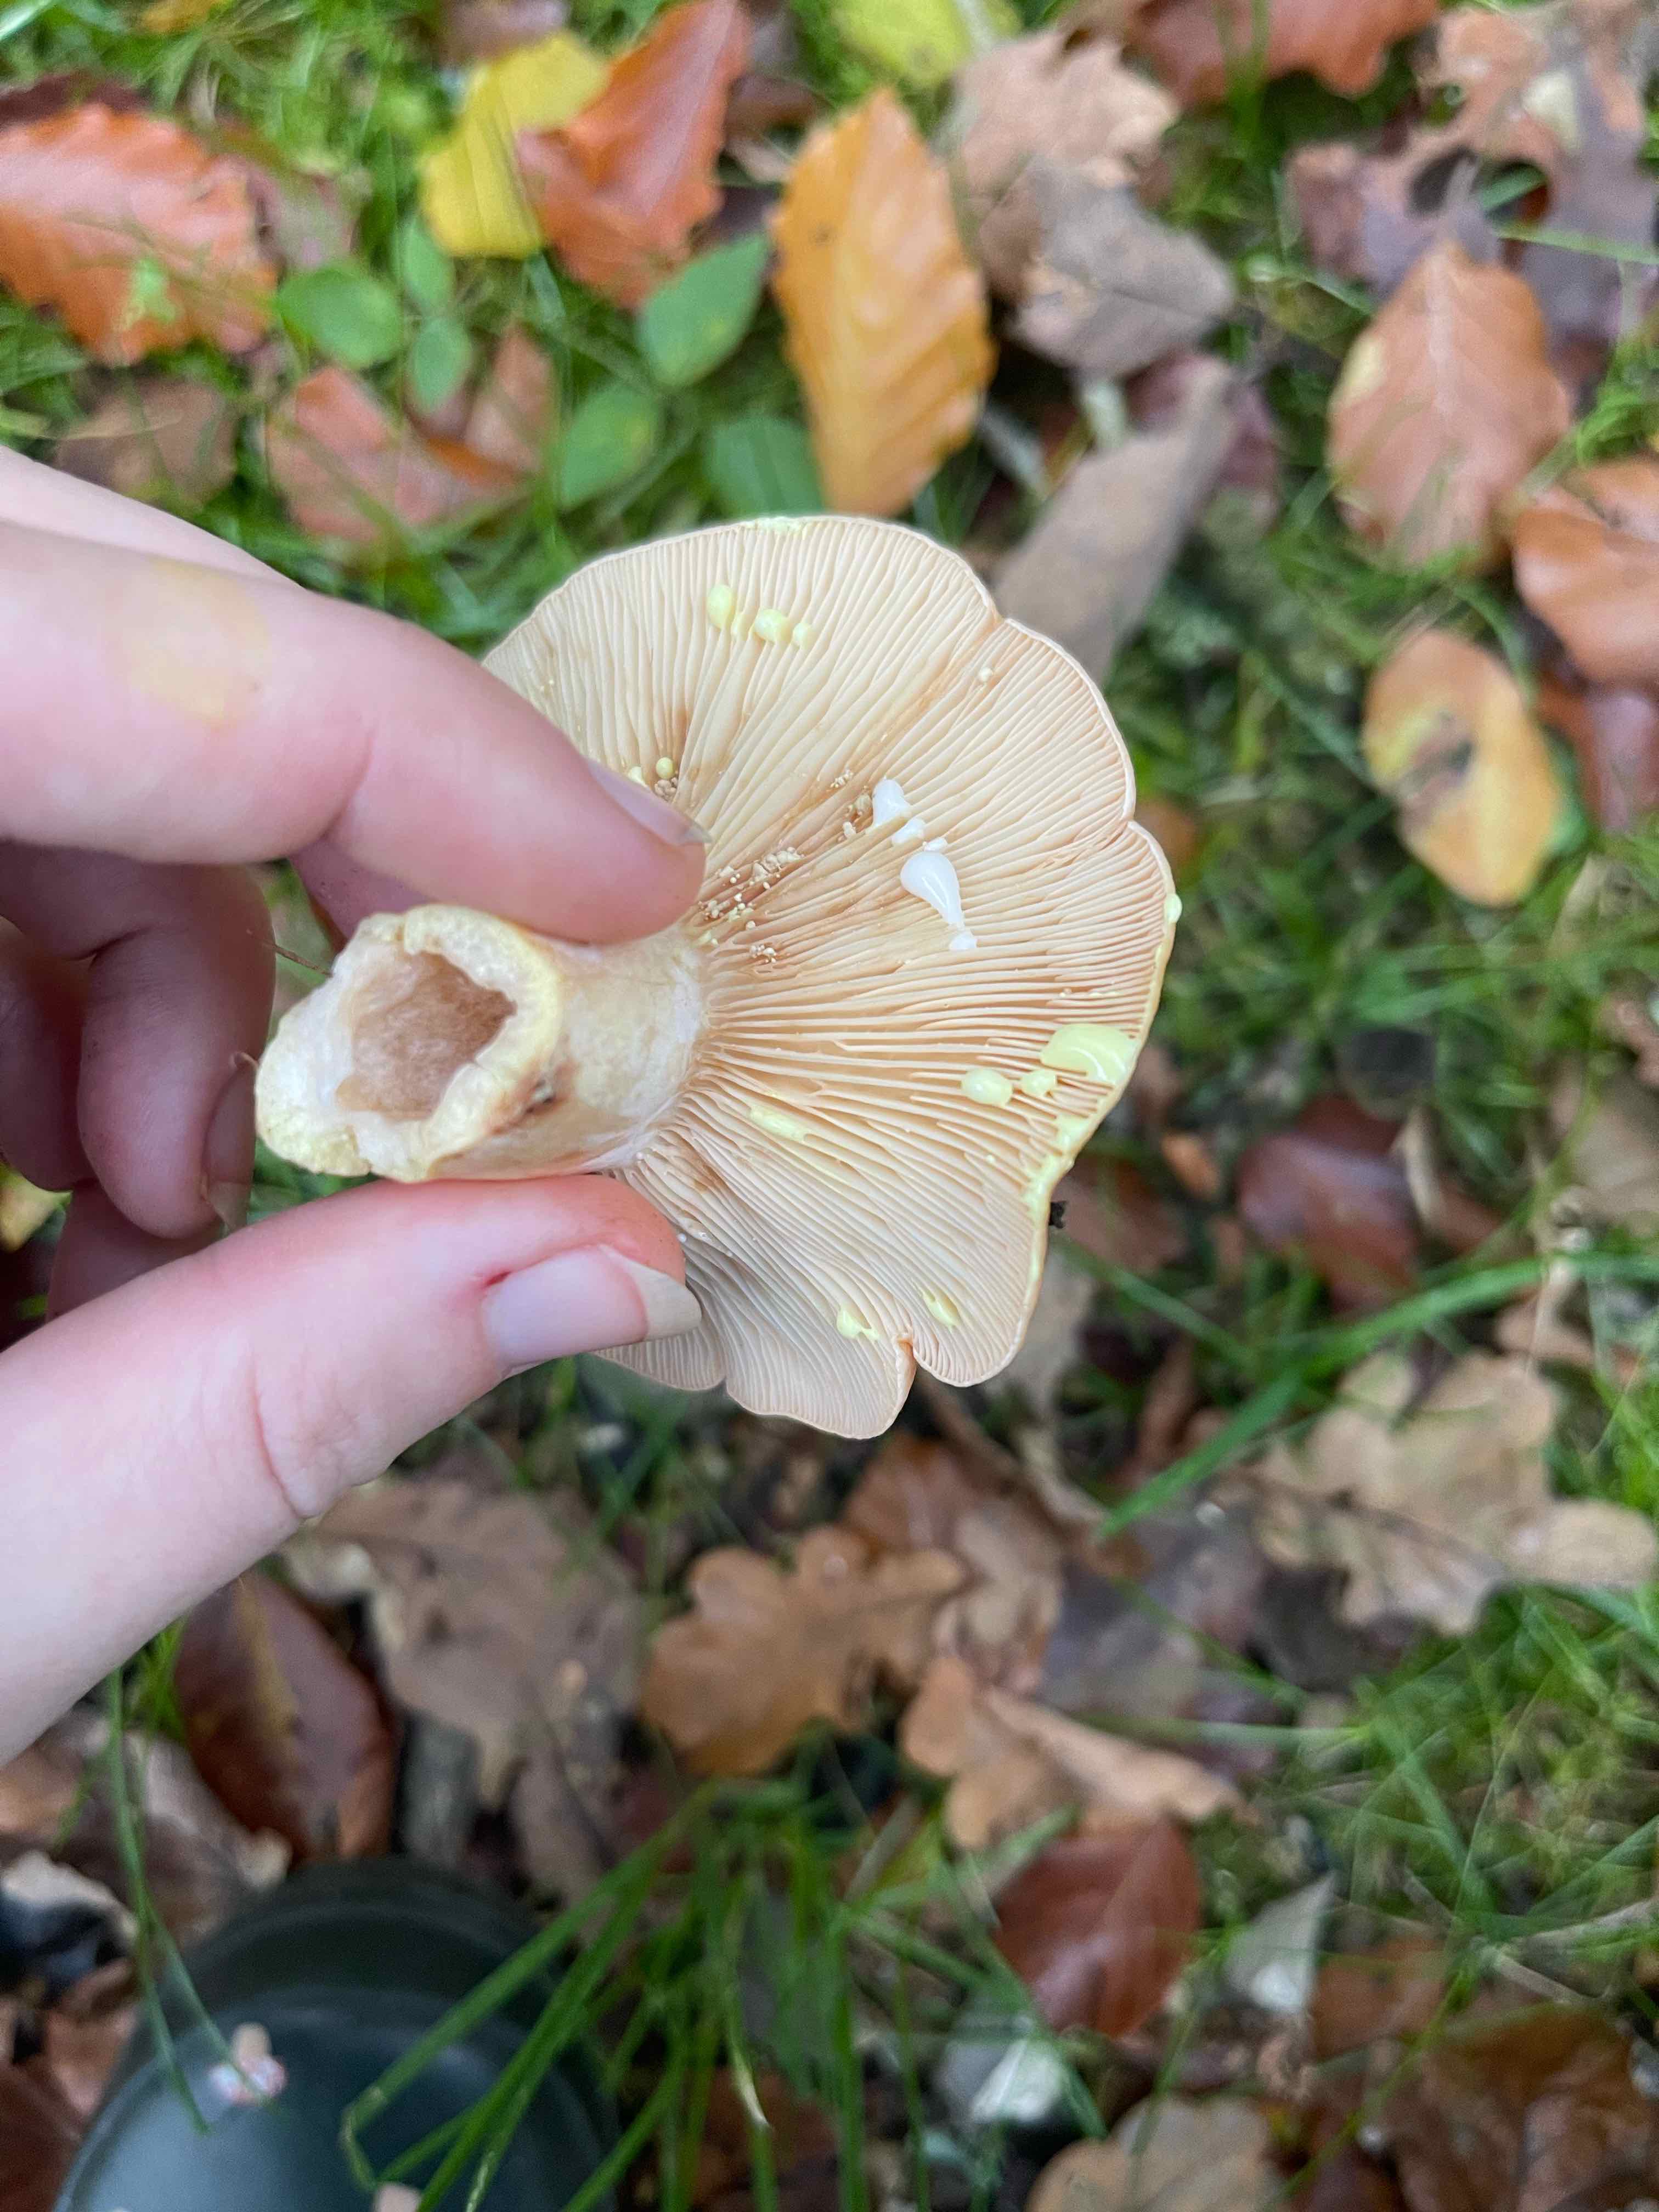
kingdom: Fungi
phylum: Basidiomycota
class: Agaricomycetes
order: Russulales
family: Russulaceae
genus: Lactarius
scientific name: Lactarius chrysorrheus
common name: svovlmælket mælkehat
